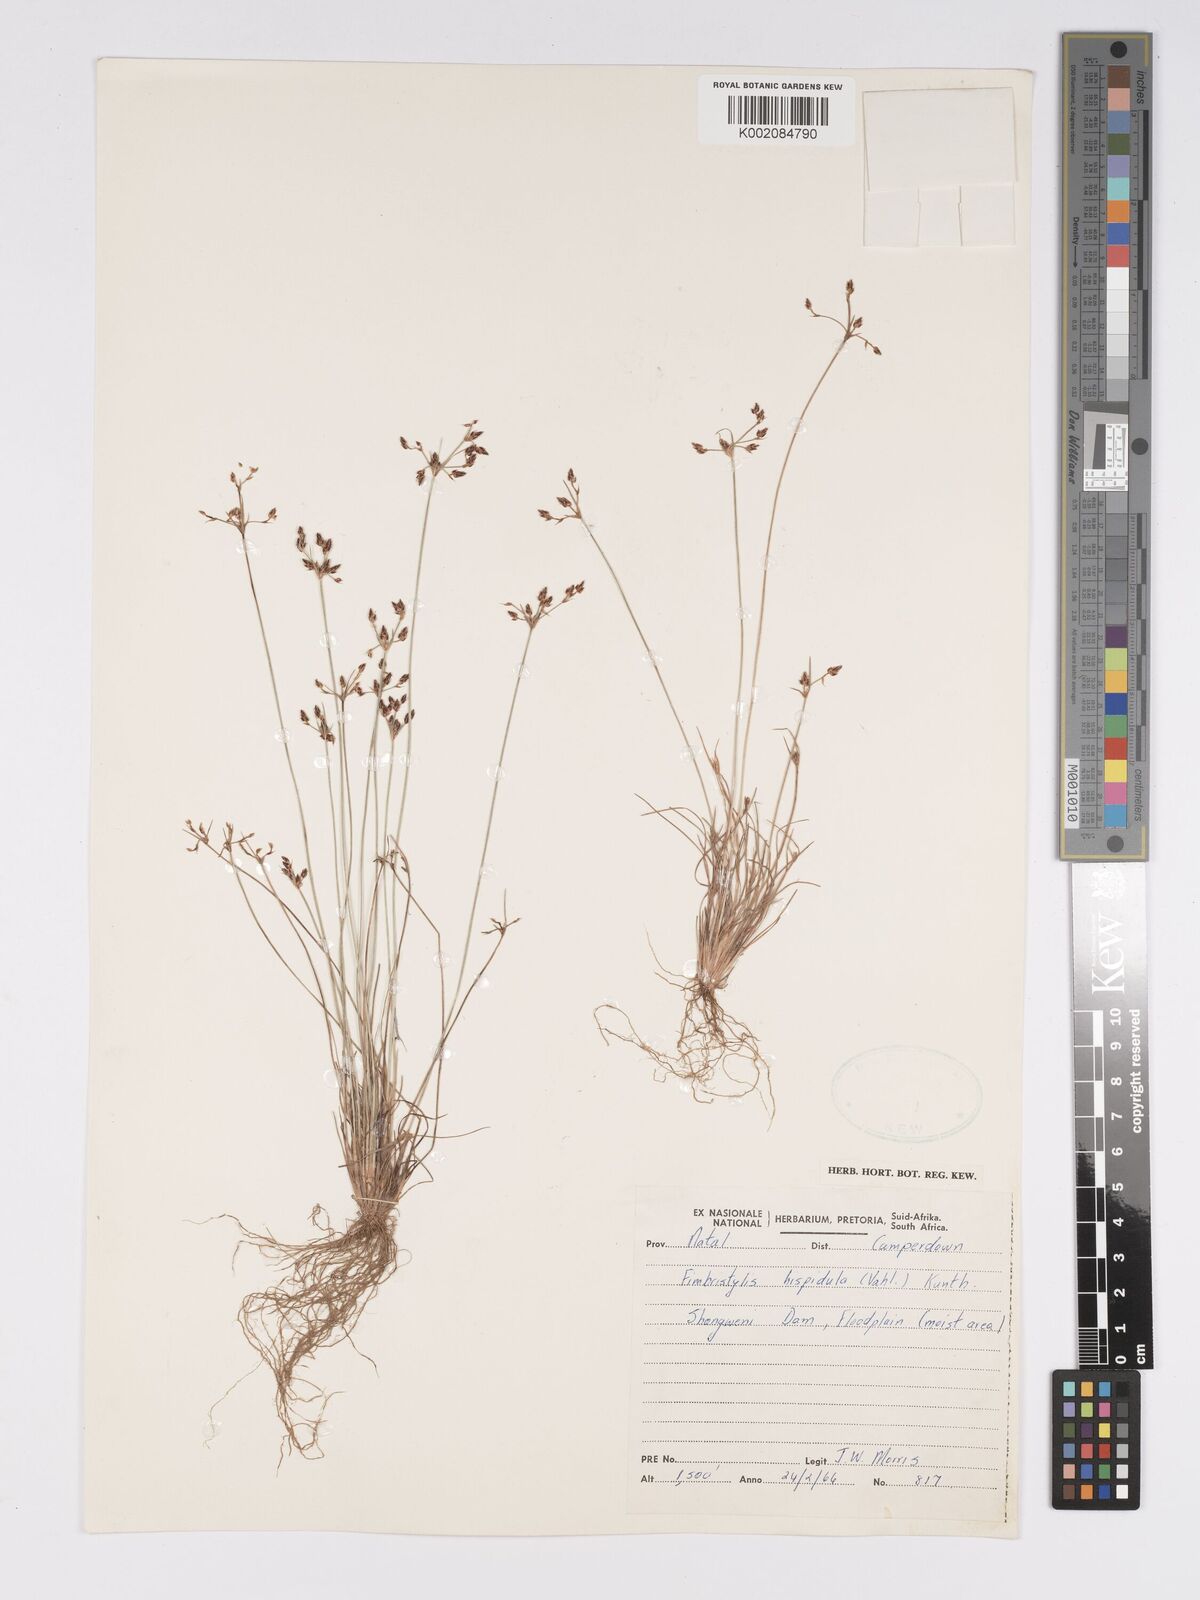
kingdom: Plantae
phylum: Tracheophyta
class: Liliopsida
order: Poales
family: Cyperaceae
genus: Bulbostylis
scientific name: Bulbostylis
